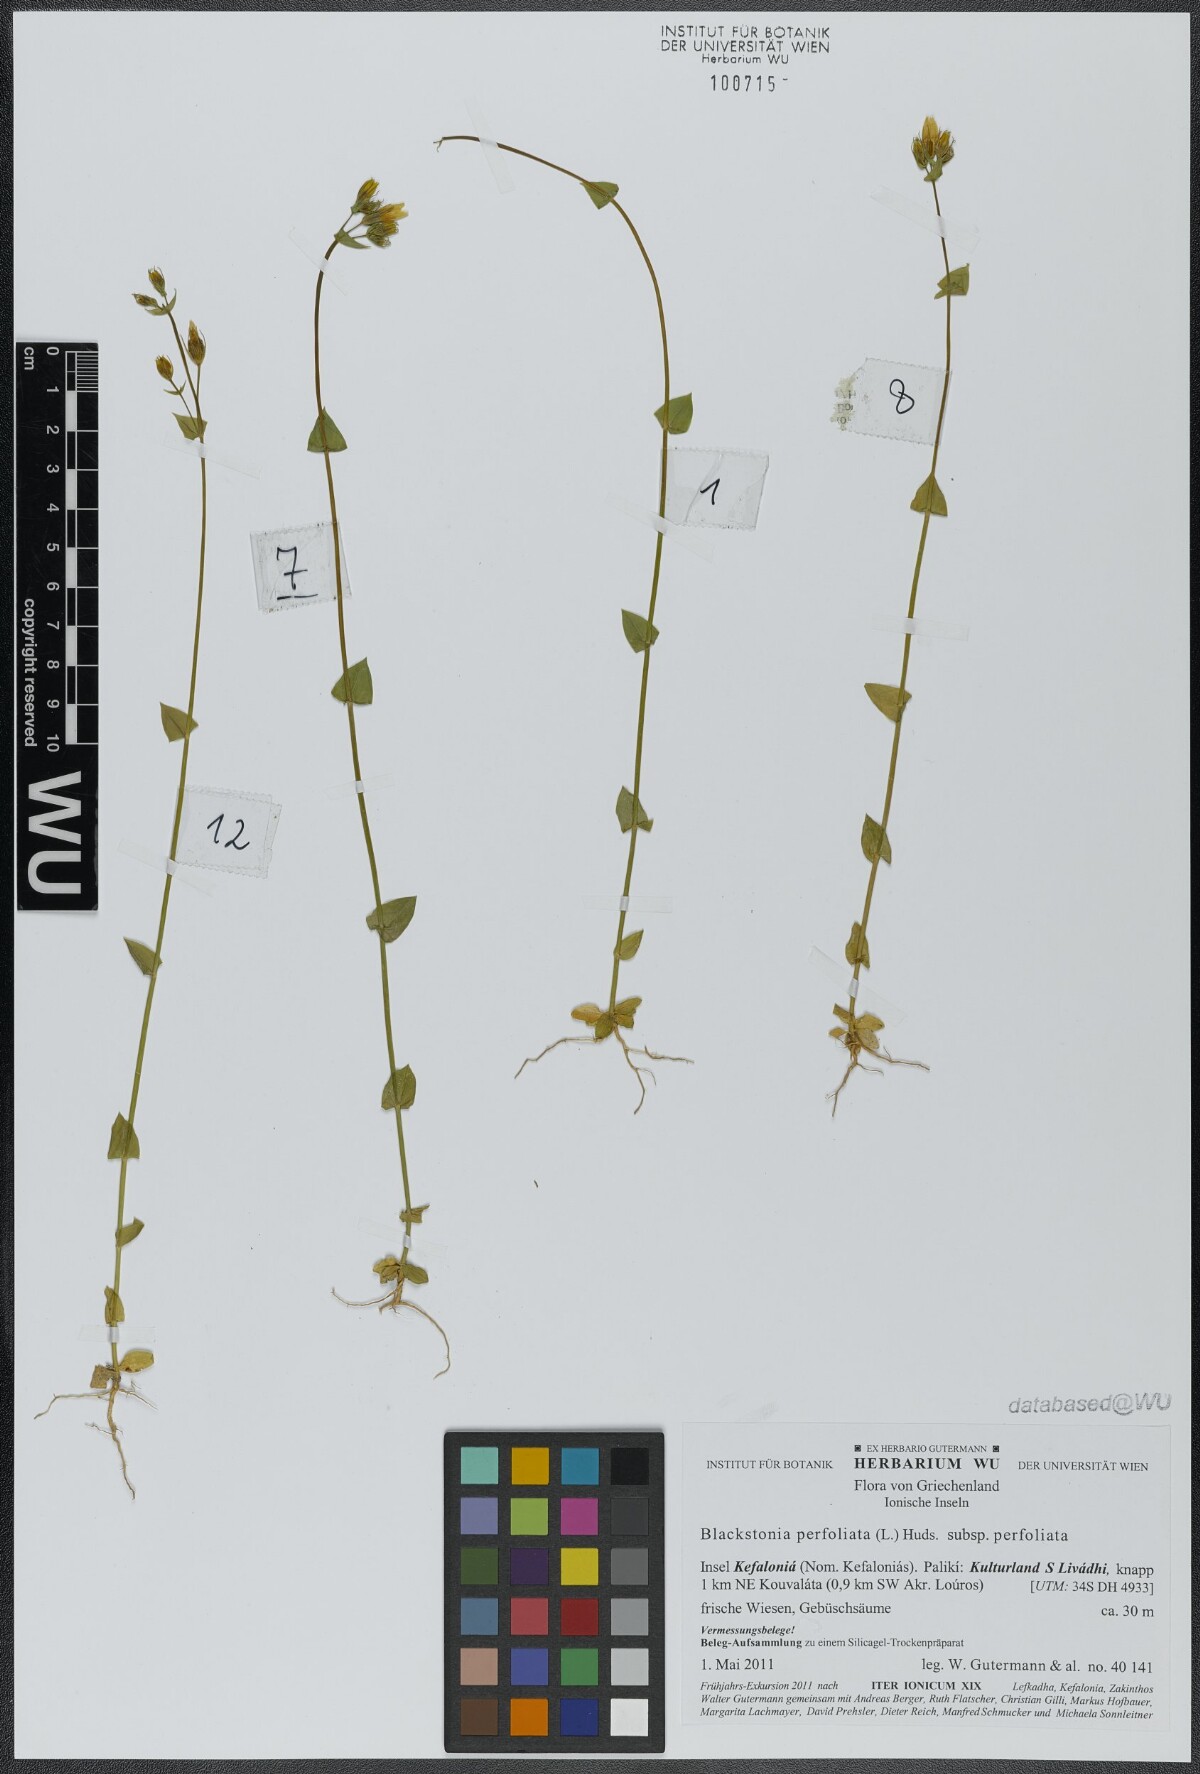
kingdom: Plantae
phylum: Tracheophyta
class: Magnoliopsida
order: Gentianales
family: Gentianaceae
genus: Blackstonia
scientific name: Blackstonia perfoliata
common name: Yellow-wort
